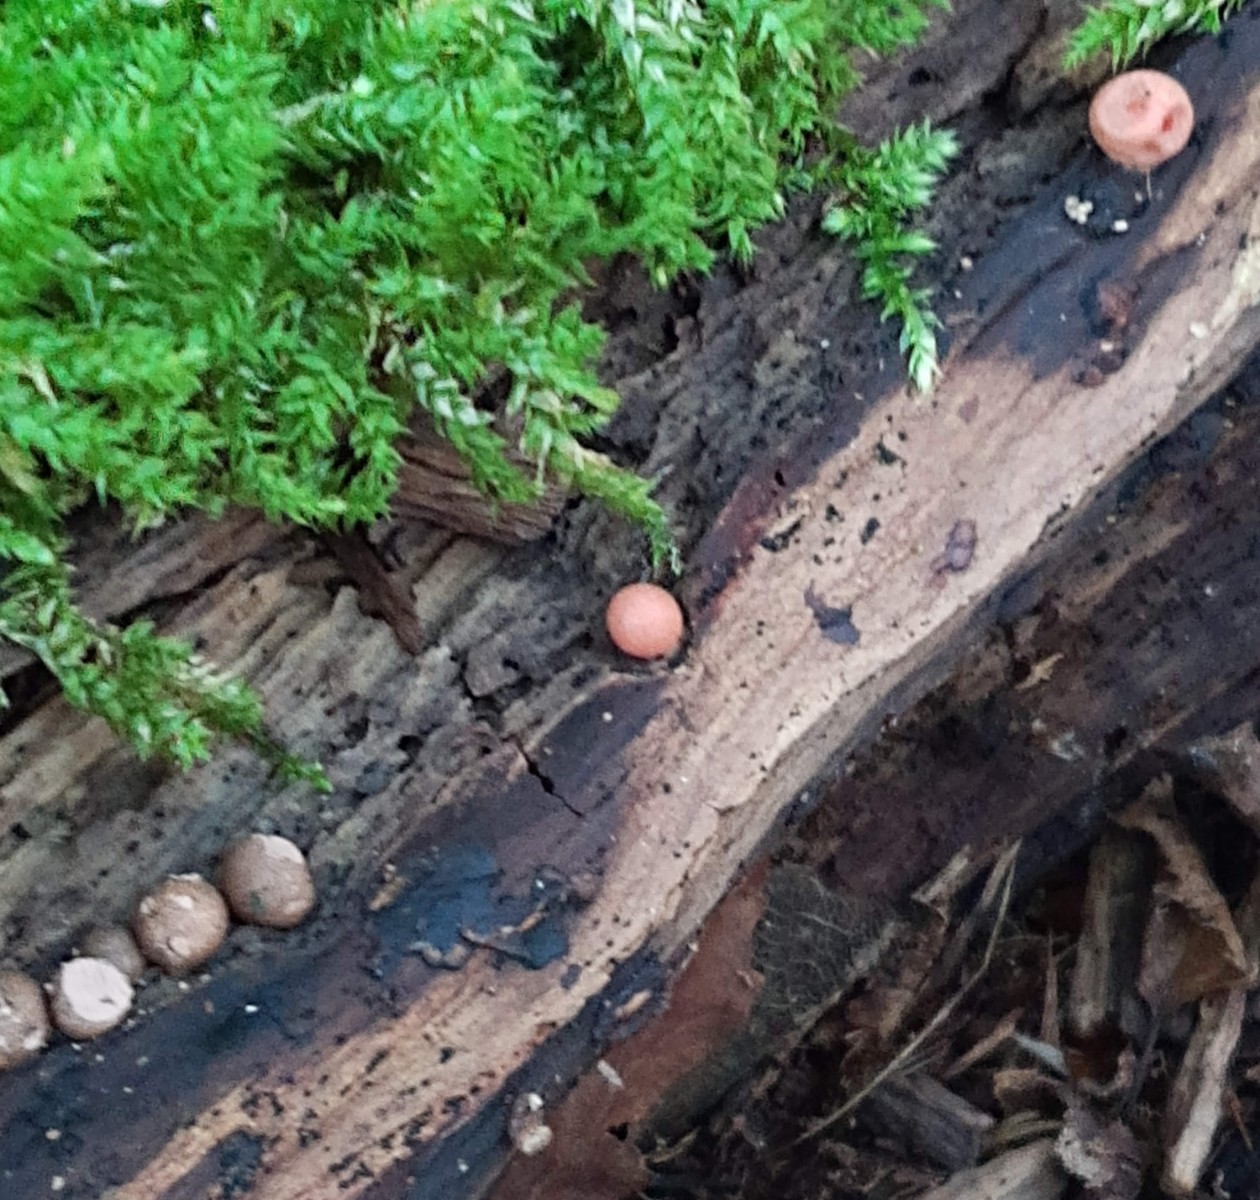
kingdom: Protozoa
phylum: Mycetozoa
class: Myxomycetes
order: Cribrariales
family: Tubiferaceae
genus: Lycogala
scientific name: Lycogala epidendrum
